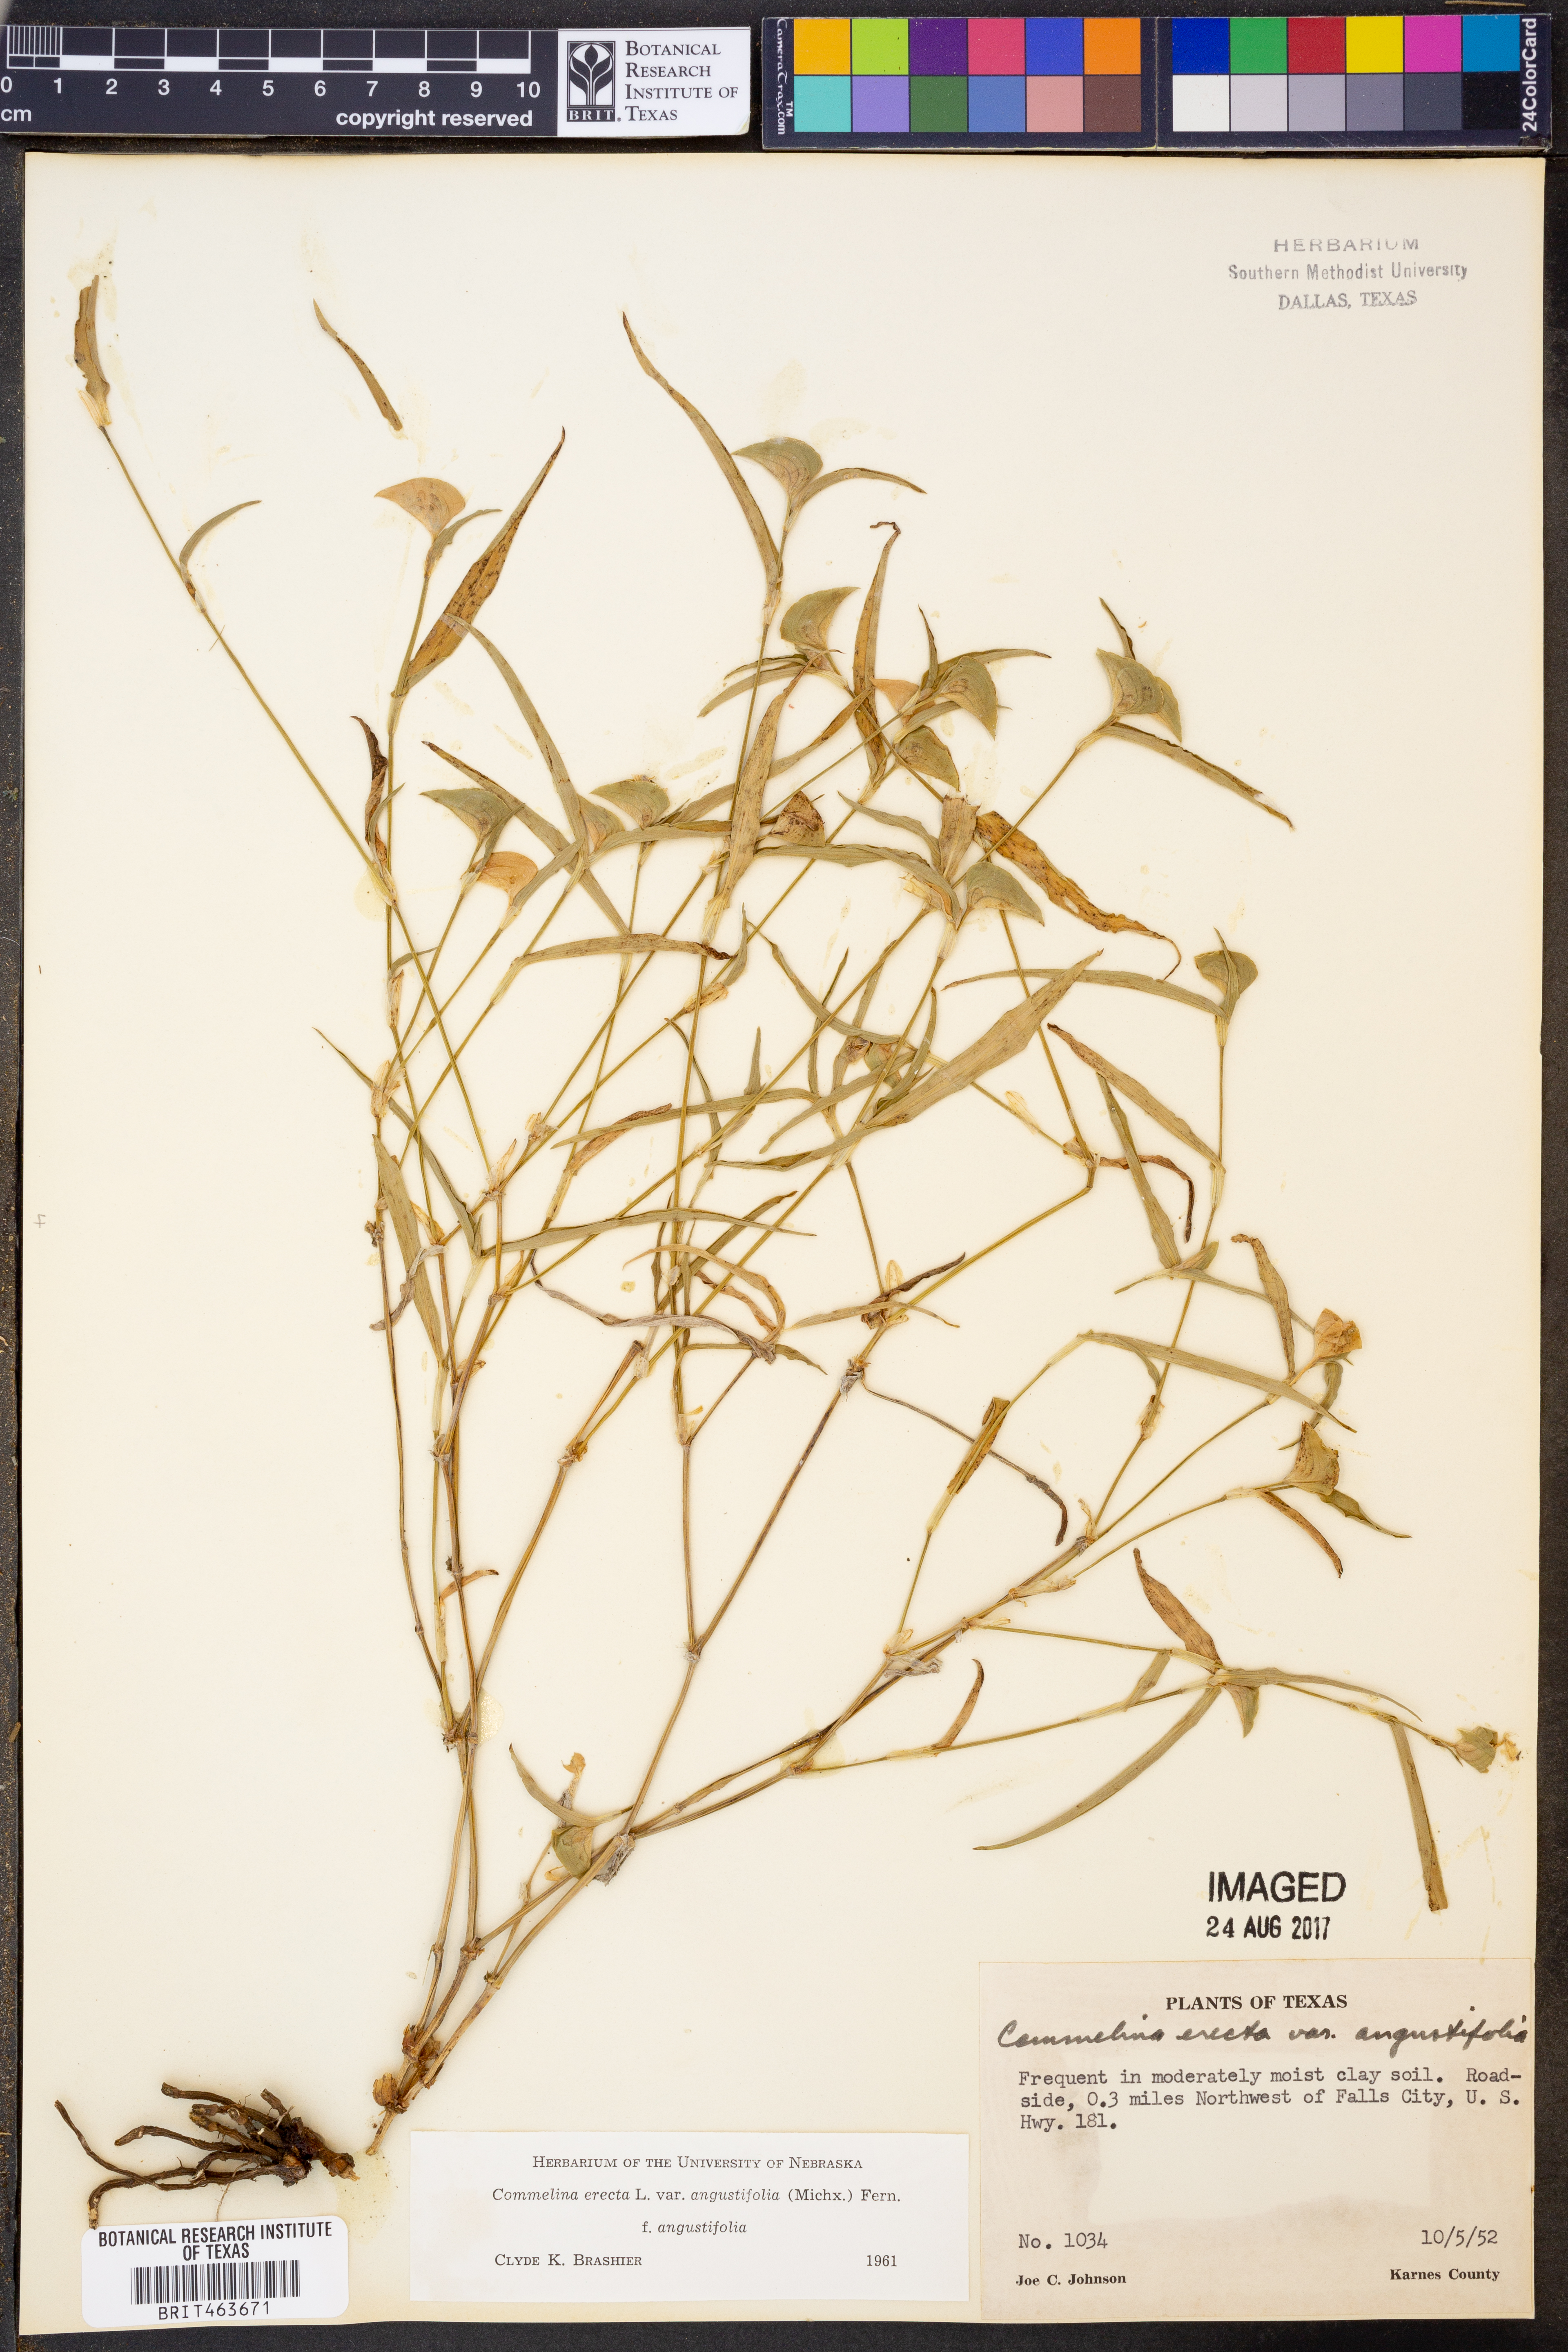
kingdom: Plantae
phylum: Tracheophyta
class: Liliopsida
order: Commelinales
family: Commelinaceae
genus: Commelina
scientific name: Commelina erecta
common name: Blousel blommetjie
